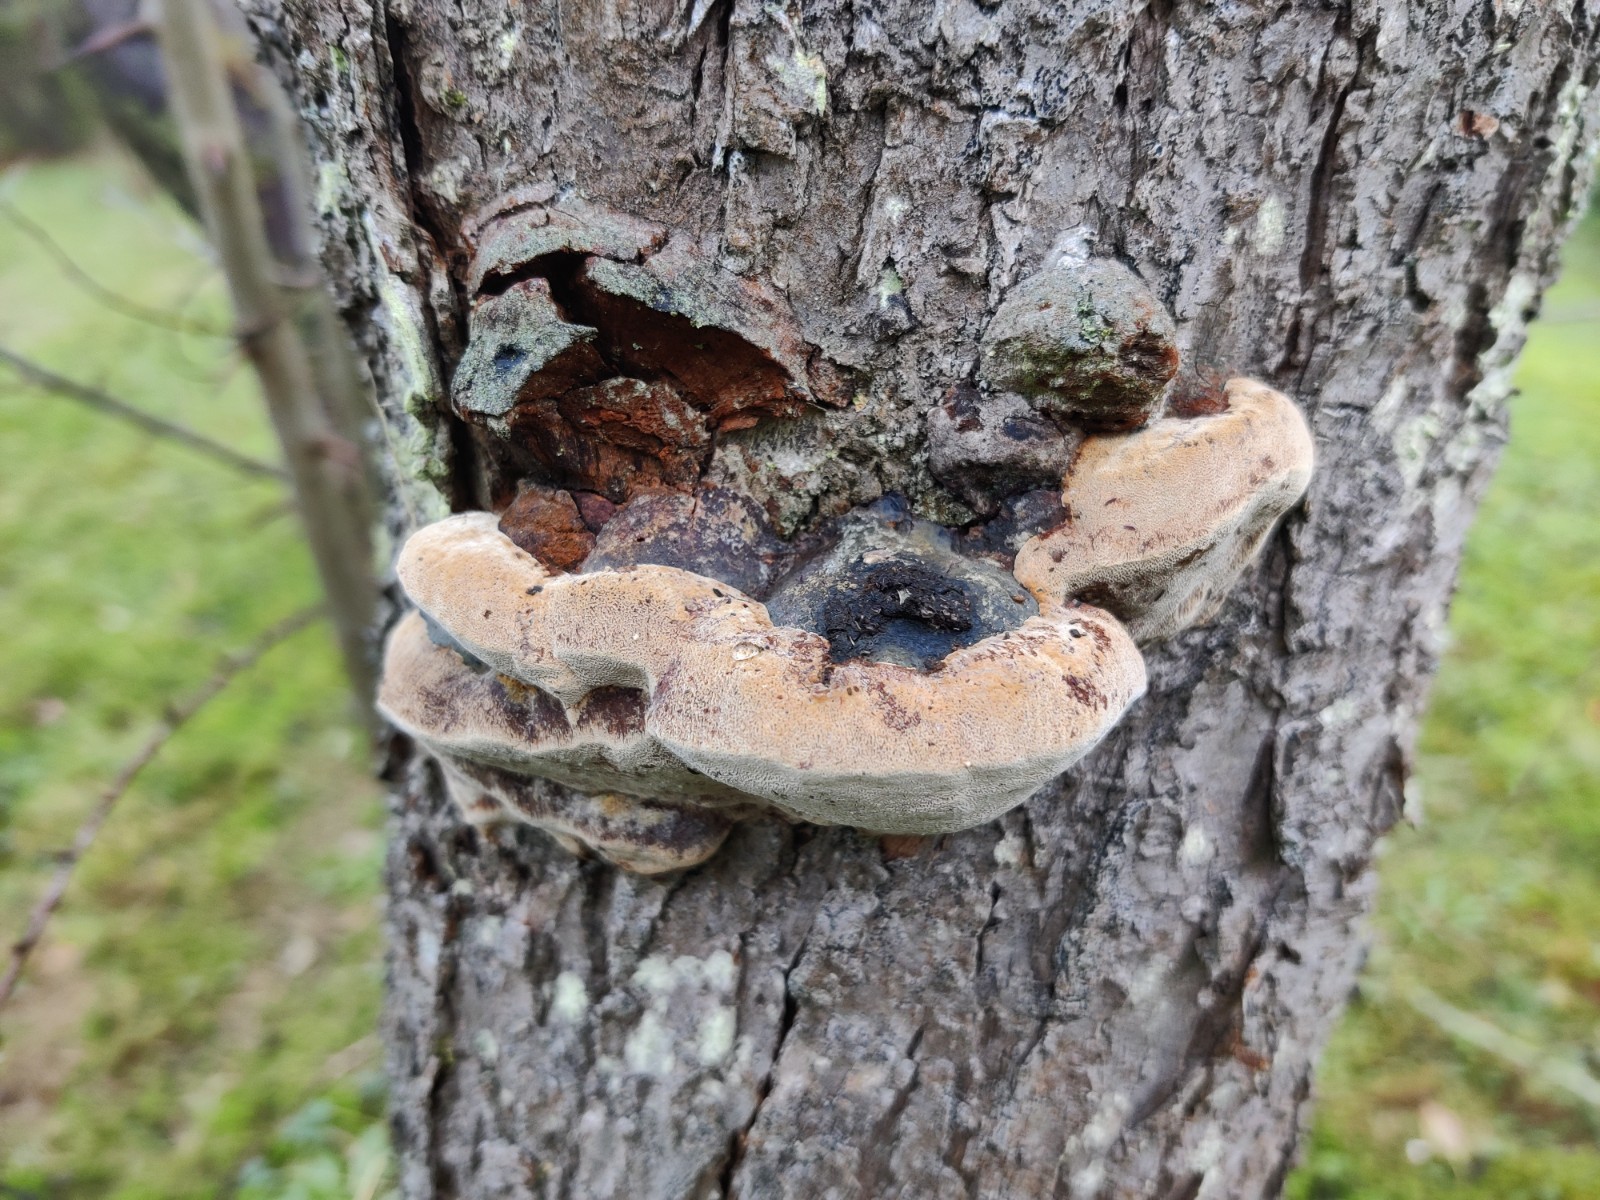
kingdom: Fungi
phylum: Basidiomycota
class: Agaricomycetes
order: Hymenochaetales
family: Hymenochaetaceae
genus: Phellinus
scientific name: Phellinus pomaceus
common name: blomme-ildporesvamp
